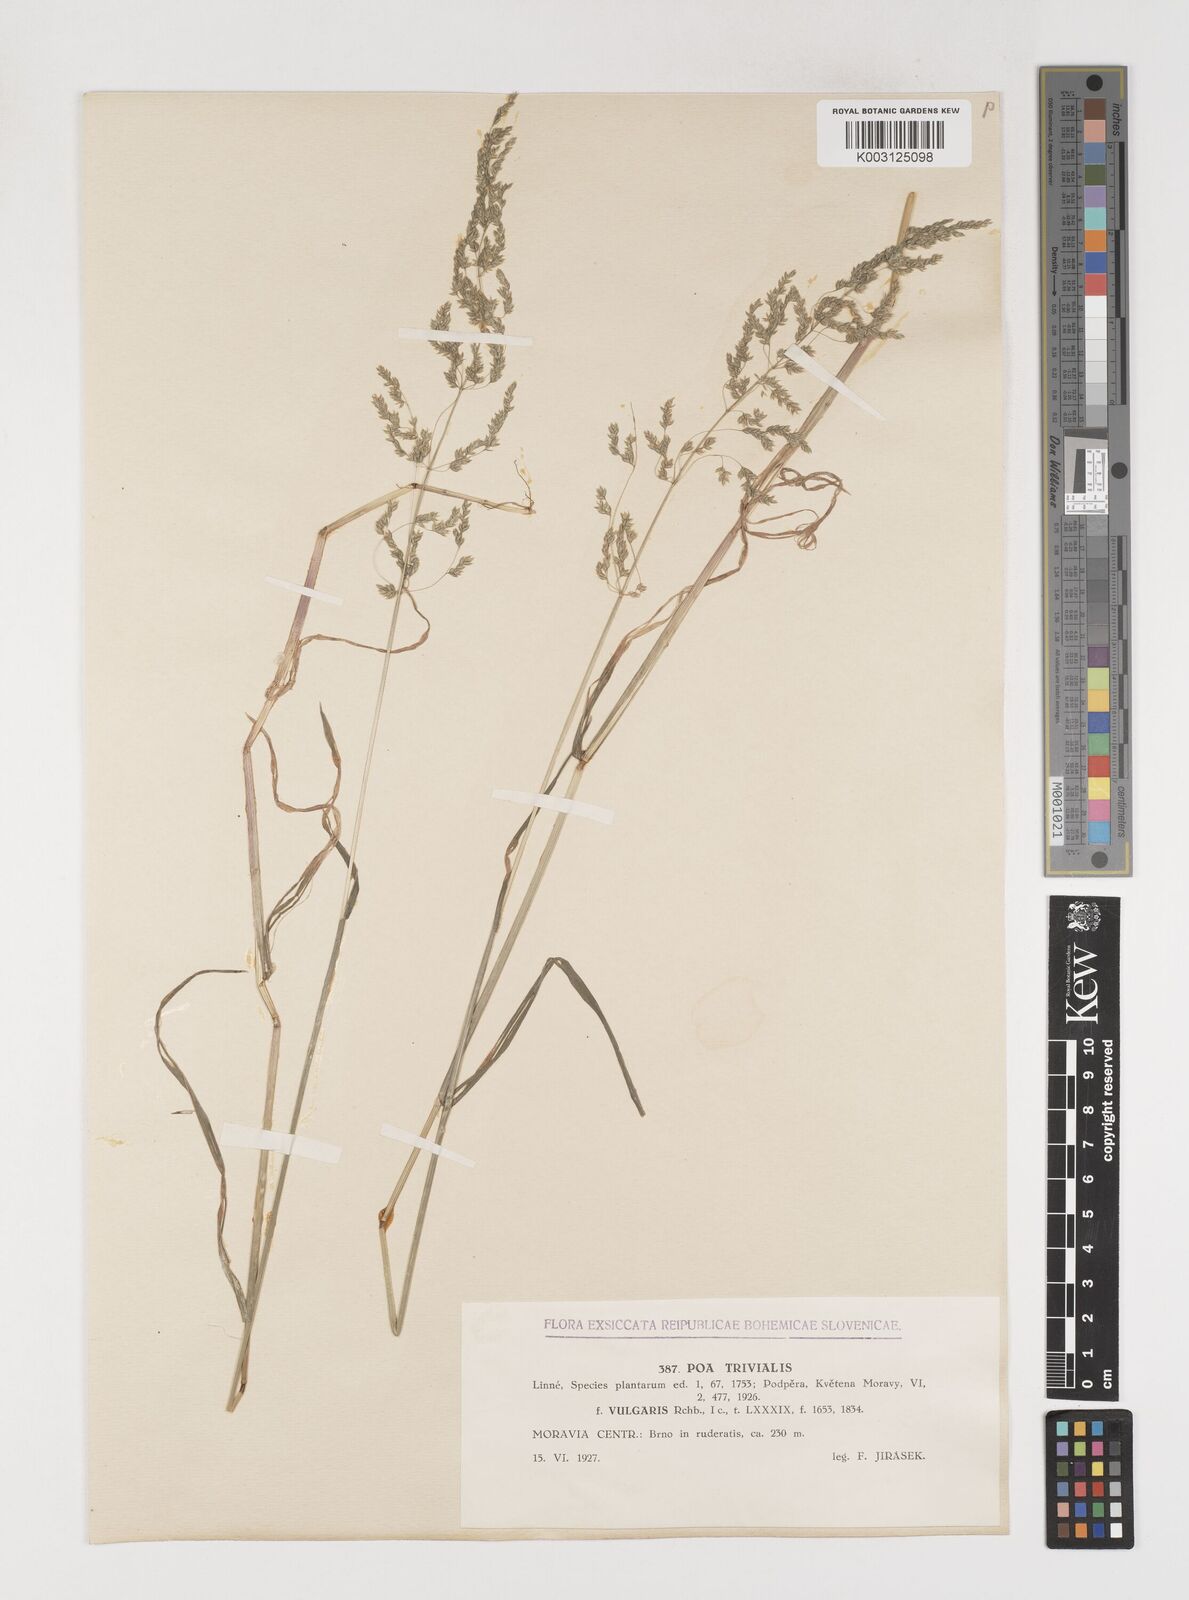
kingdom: Plantae
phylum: Tracheophyta
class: Liliopsida
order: Poales
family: Poaceae
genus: Poa
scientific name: Poa trivialis
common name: Rough bluegrass
